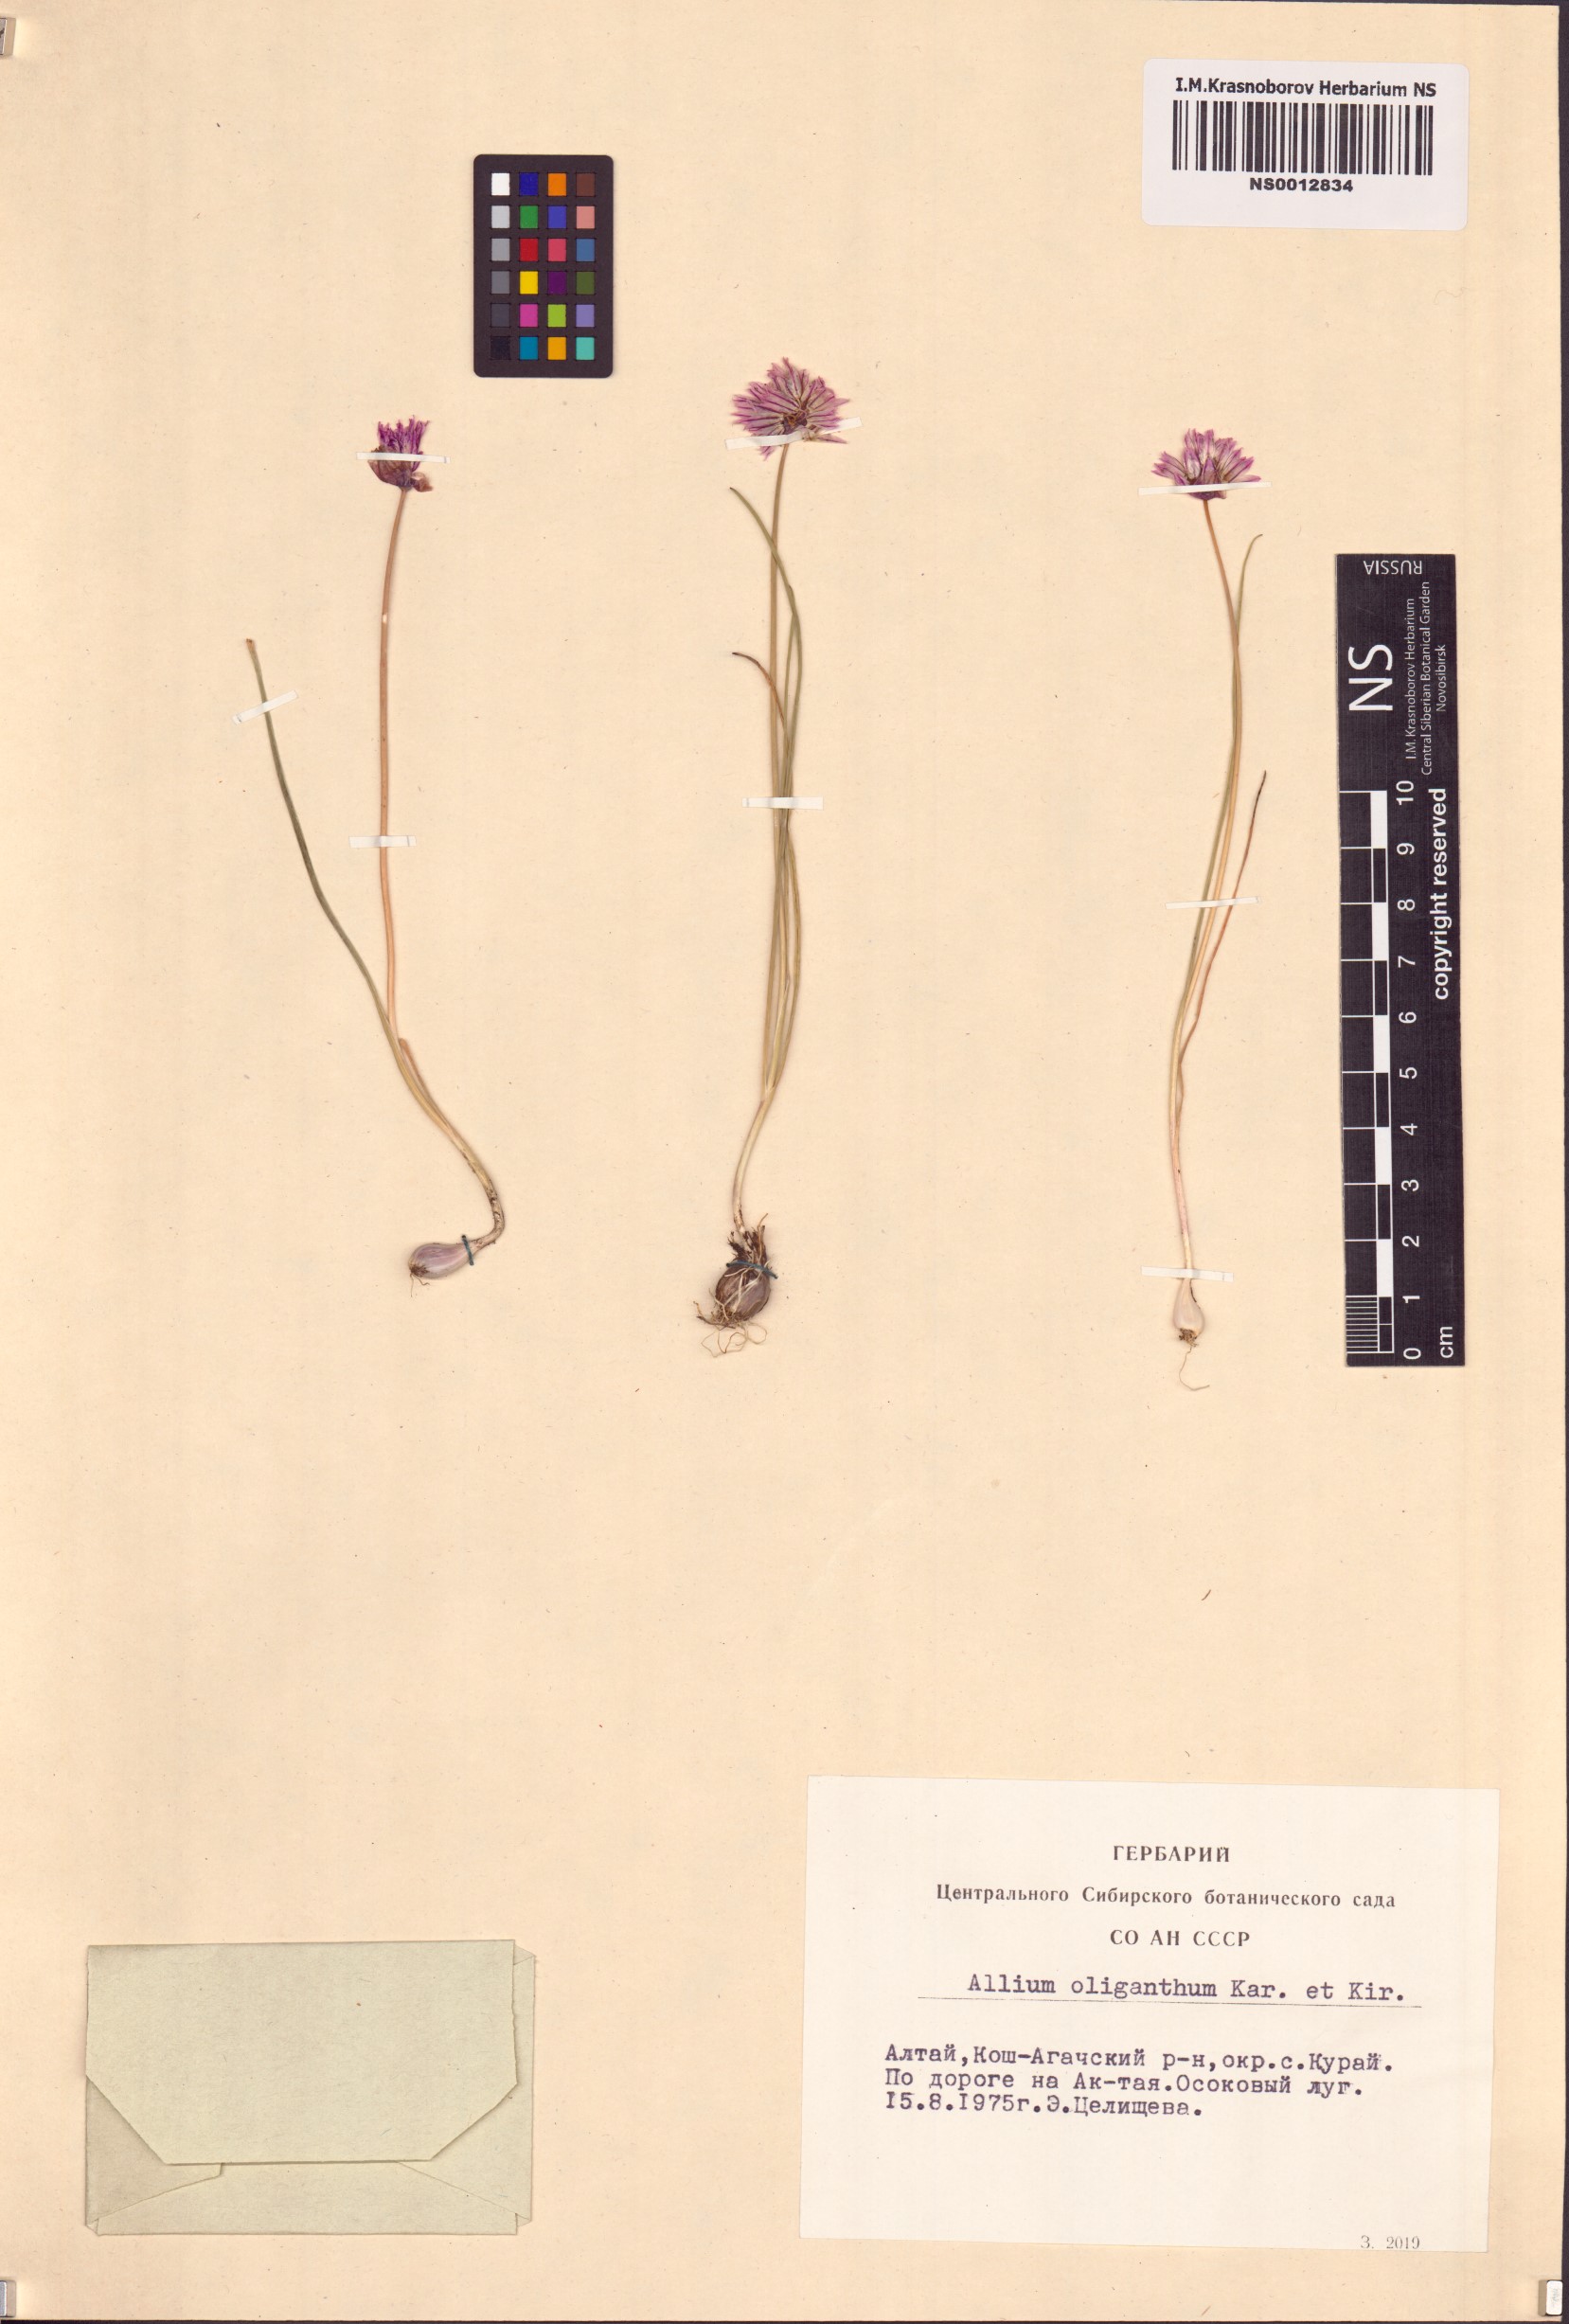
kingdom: Plantae
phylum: Tracheophyta
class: Liliopsida
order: Asparagales
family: Amaryllidaceae
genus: Allium
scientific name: Allium oliganthum
